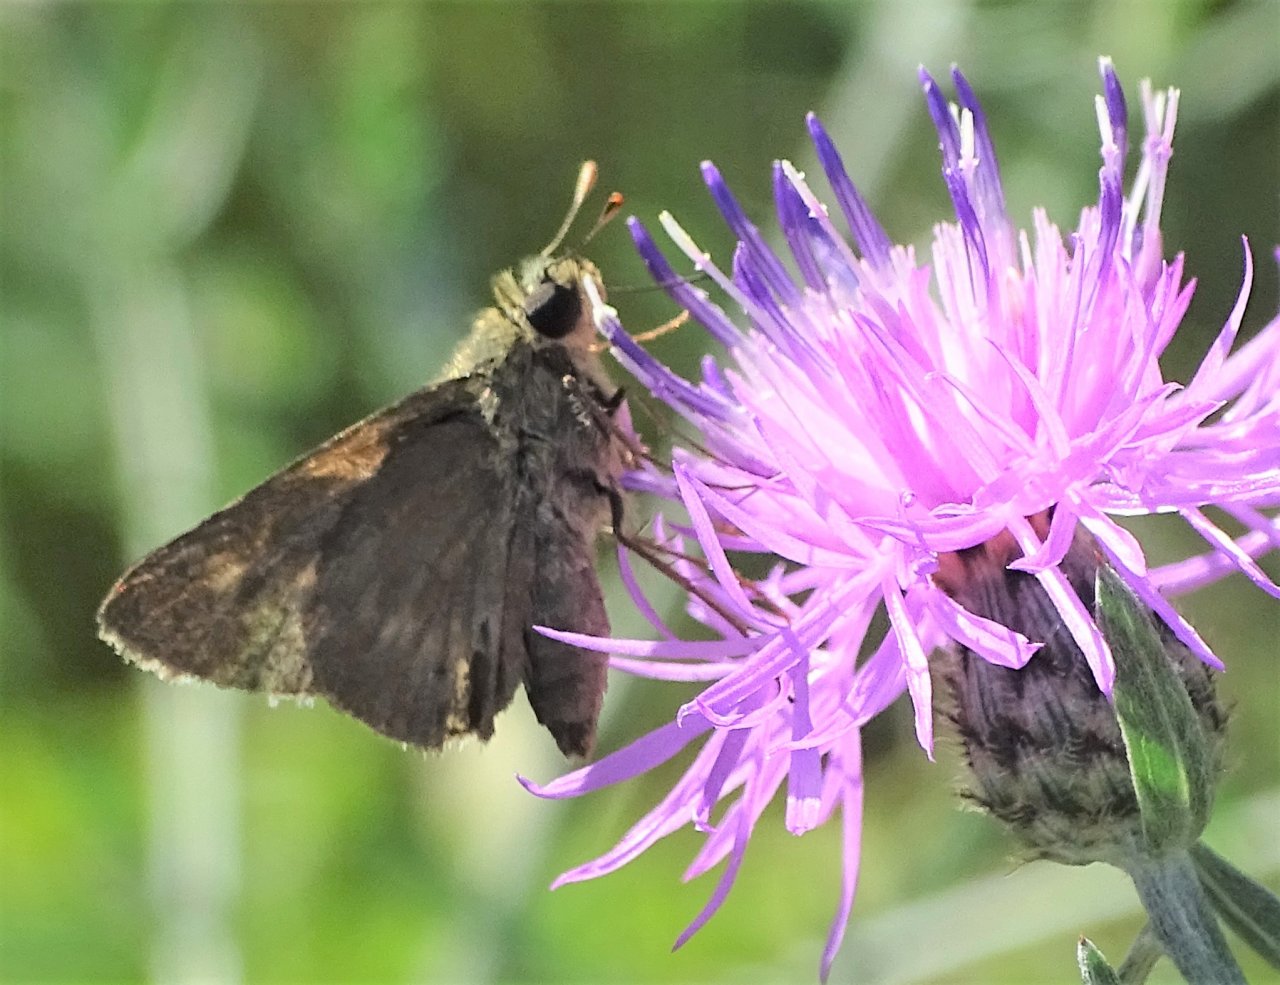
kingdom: Animalia
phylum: Arthropoda
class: Insecta
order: Lepidoptera
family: Hesperiidae
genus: Polites
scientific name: Polites egeremet
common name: Northern Broken-Dash
